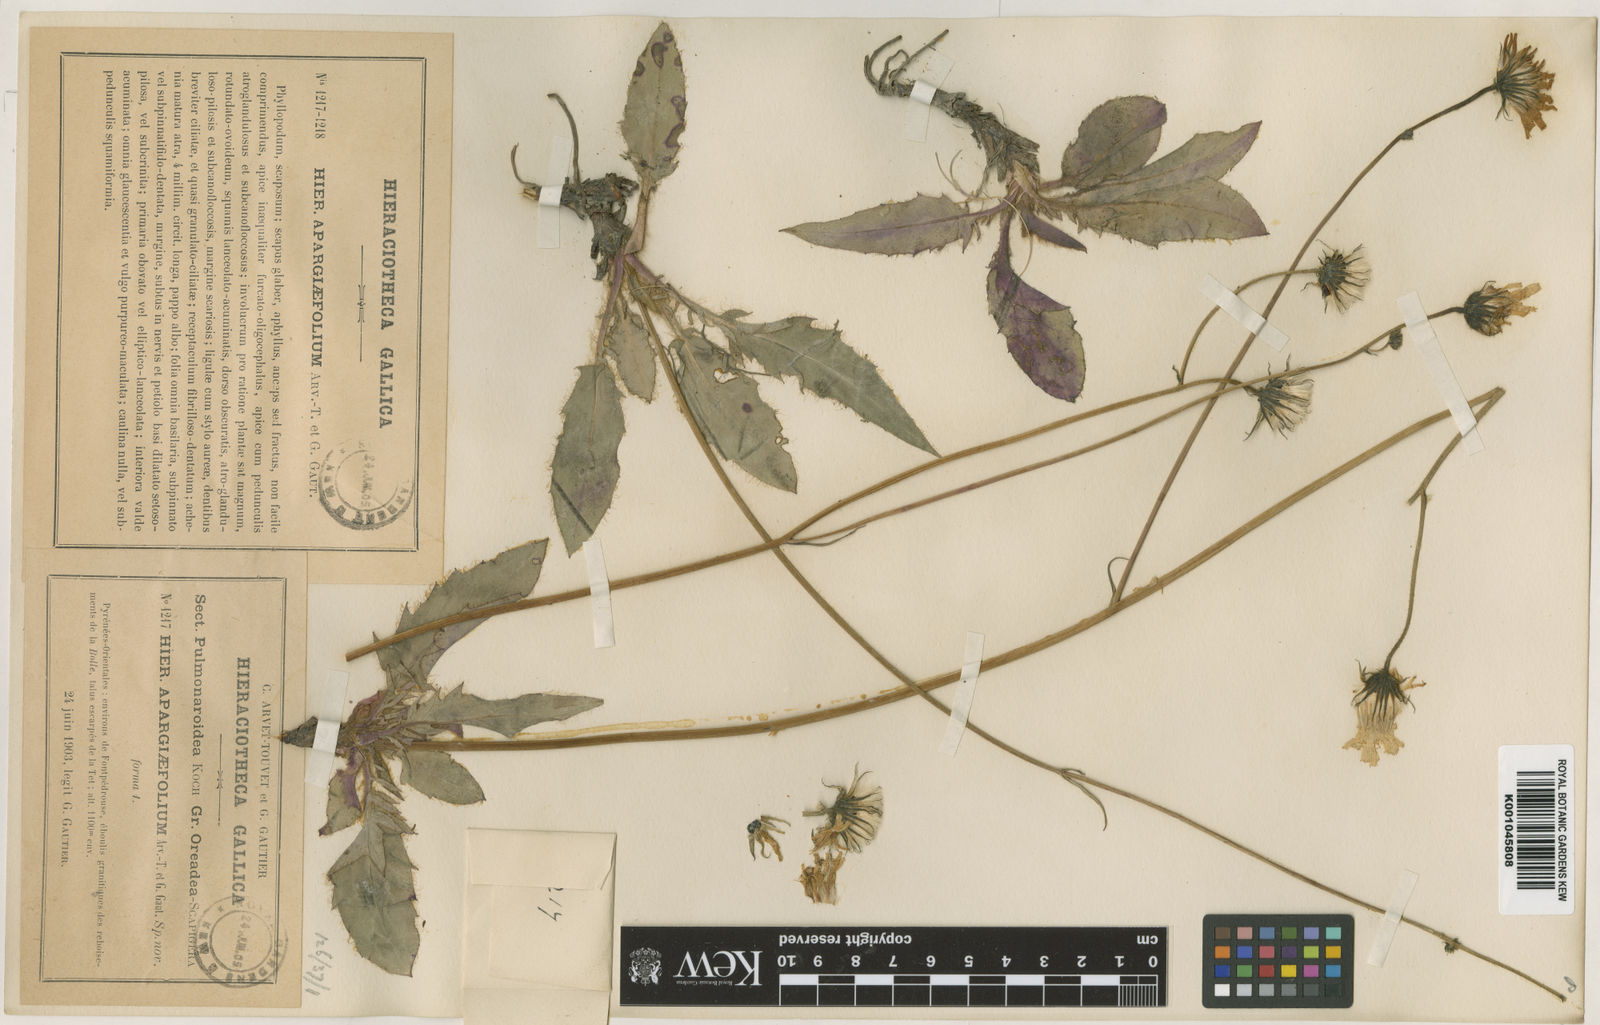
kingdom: Plantae
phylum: Tracheophyta
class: Magnoliopsida
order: Asterales
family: Asteraceae
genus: Hieracium
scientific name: Hieracium pallidum
